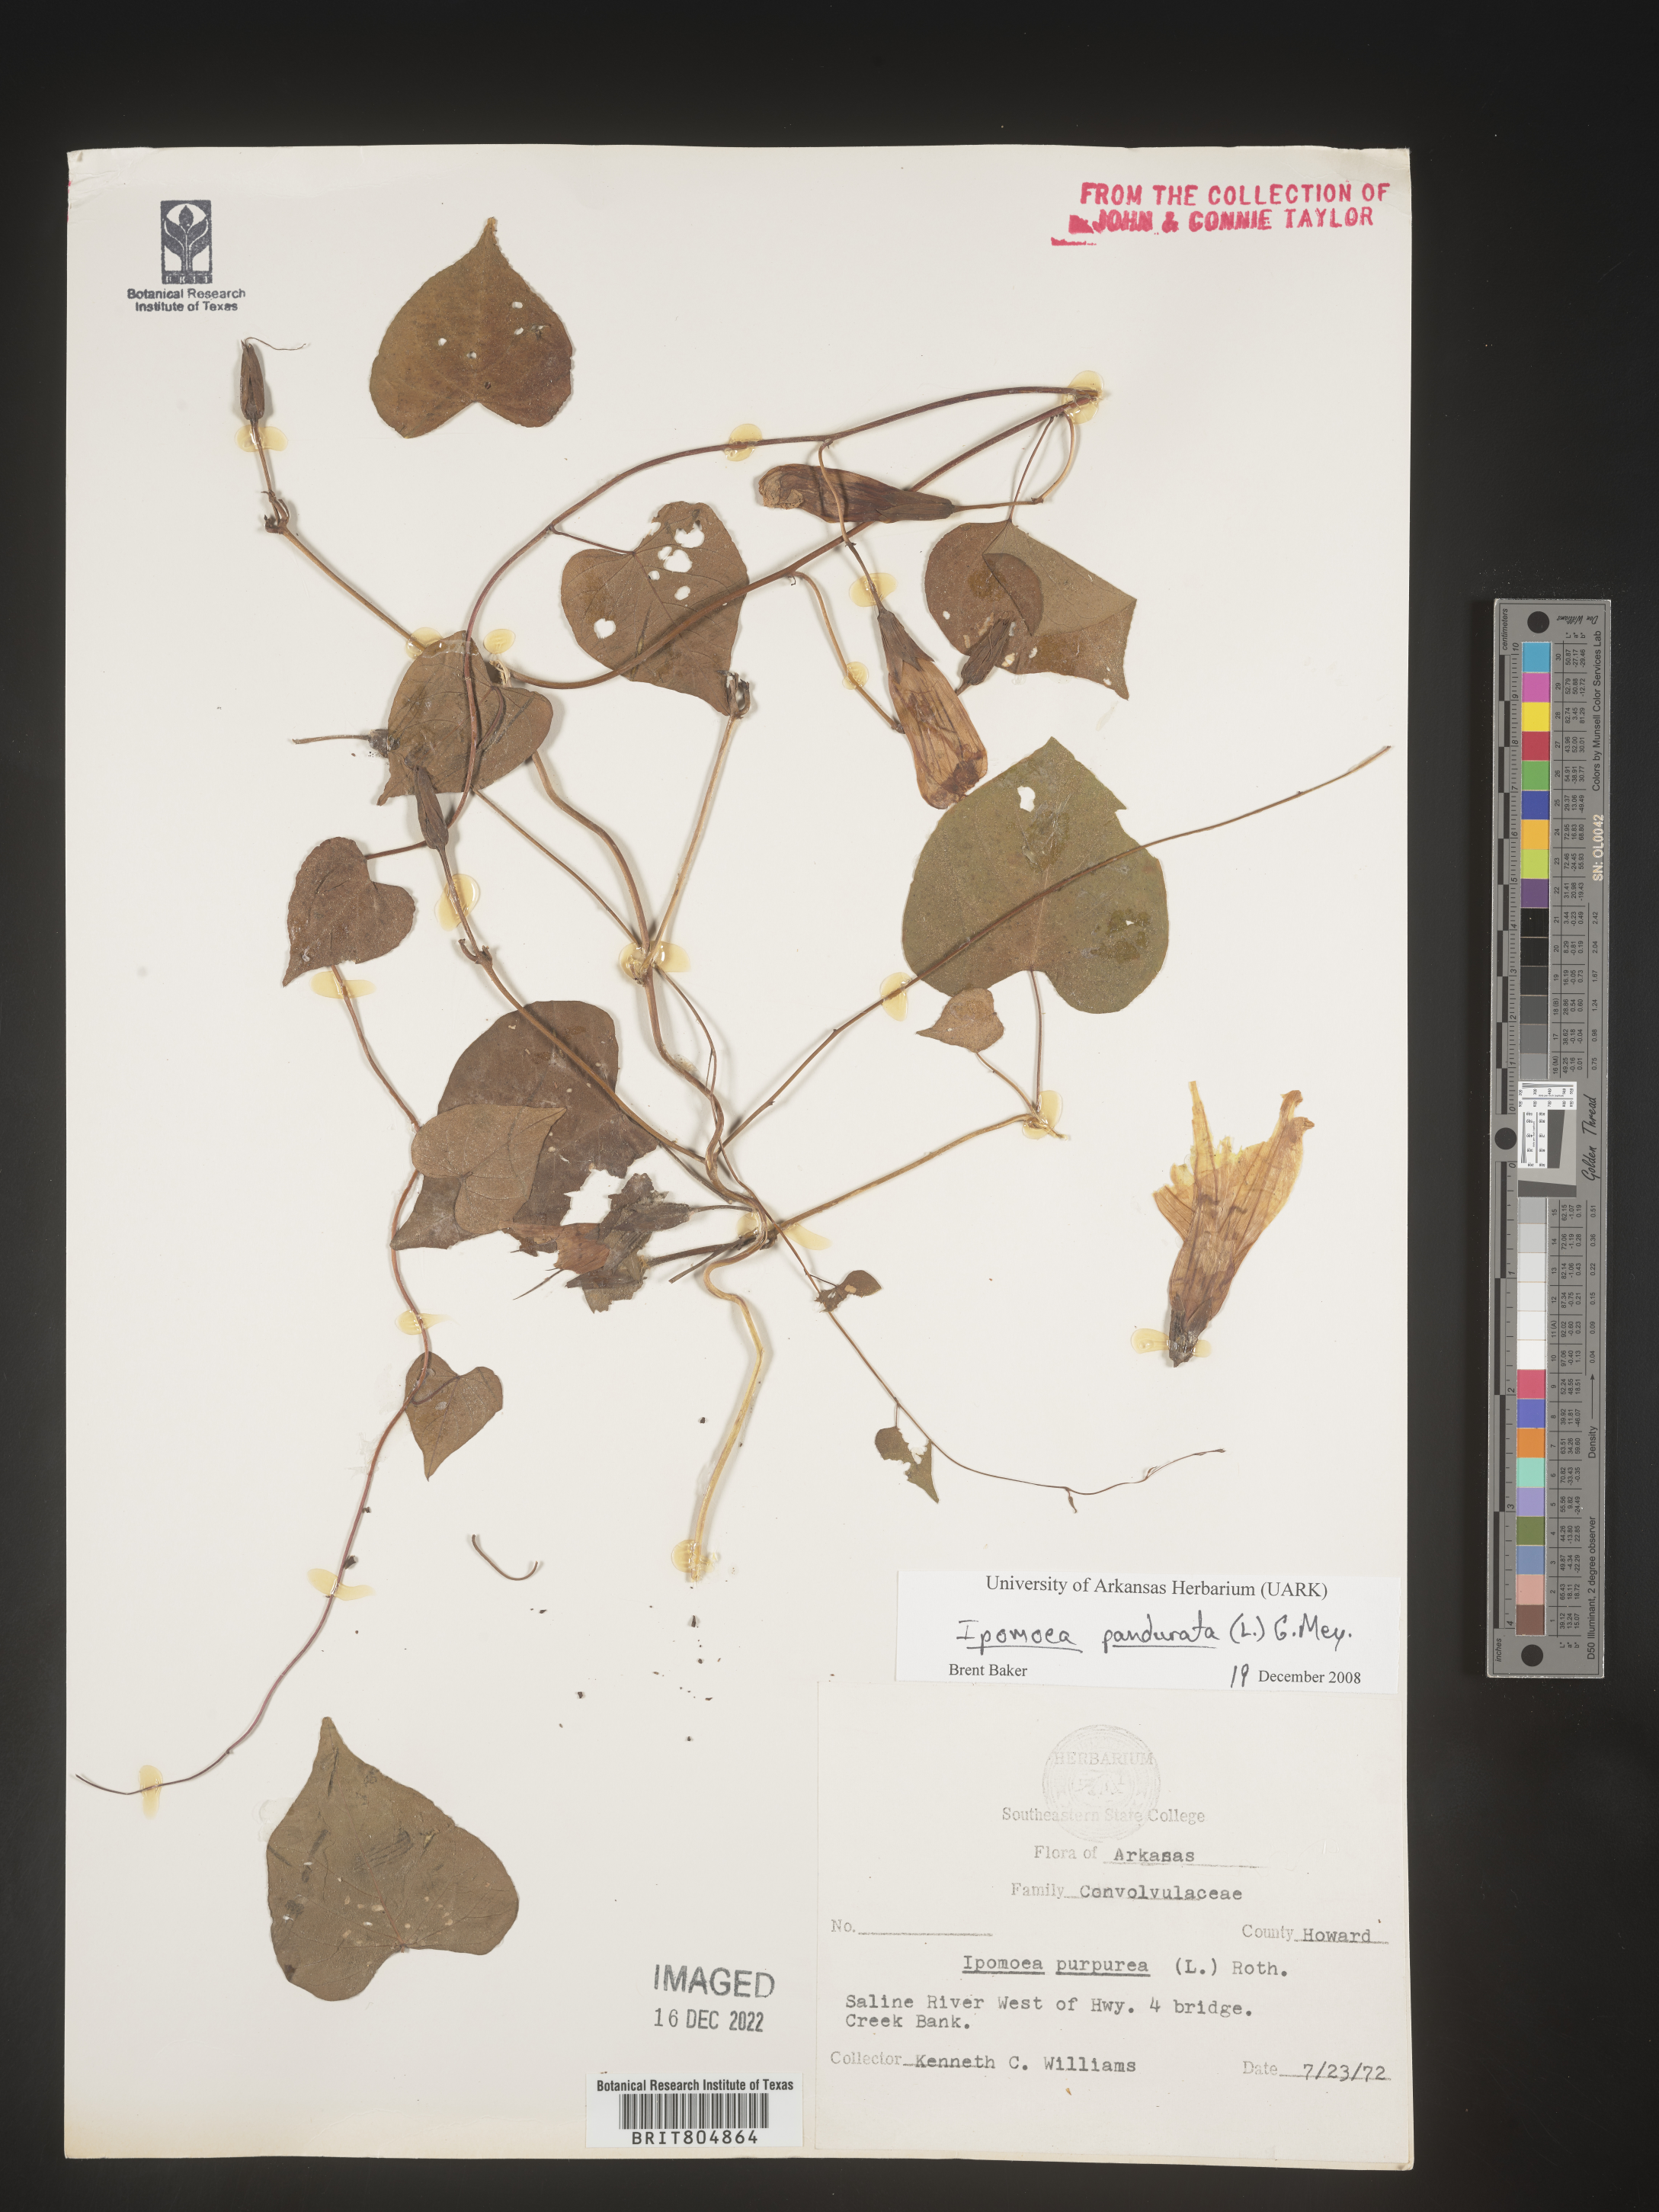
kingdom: Plantae
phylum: Tracheophyta
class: Magnoliopsida
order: Solanales
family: Convolvulaceae
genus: Ipomoea
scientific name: Ipomoea pandurata
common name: Man-of-the-earth
